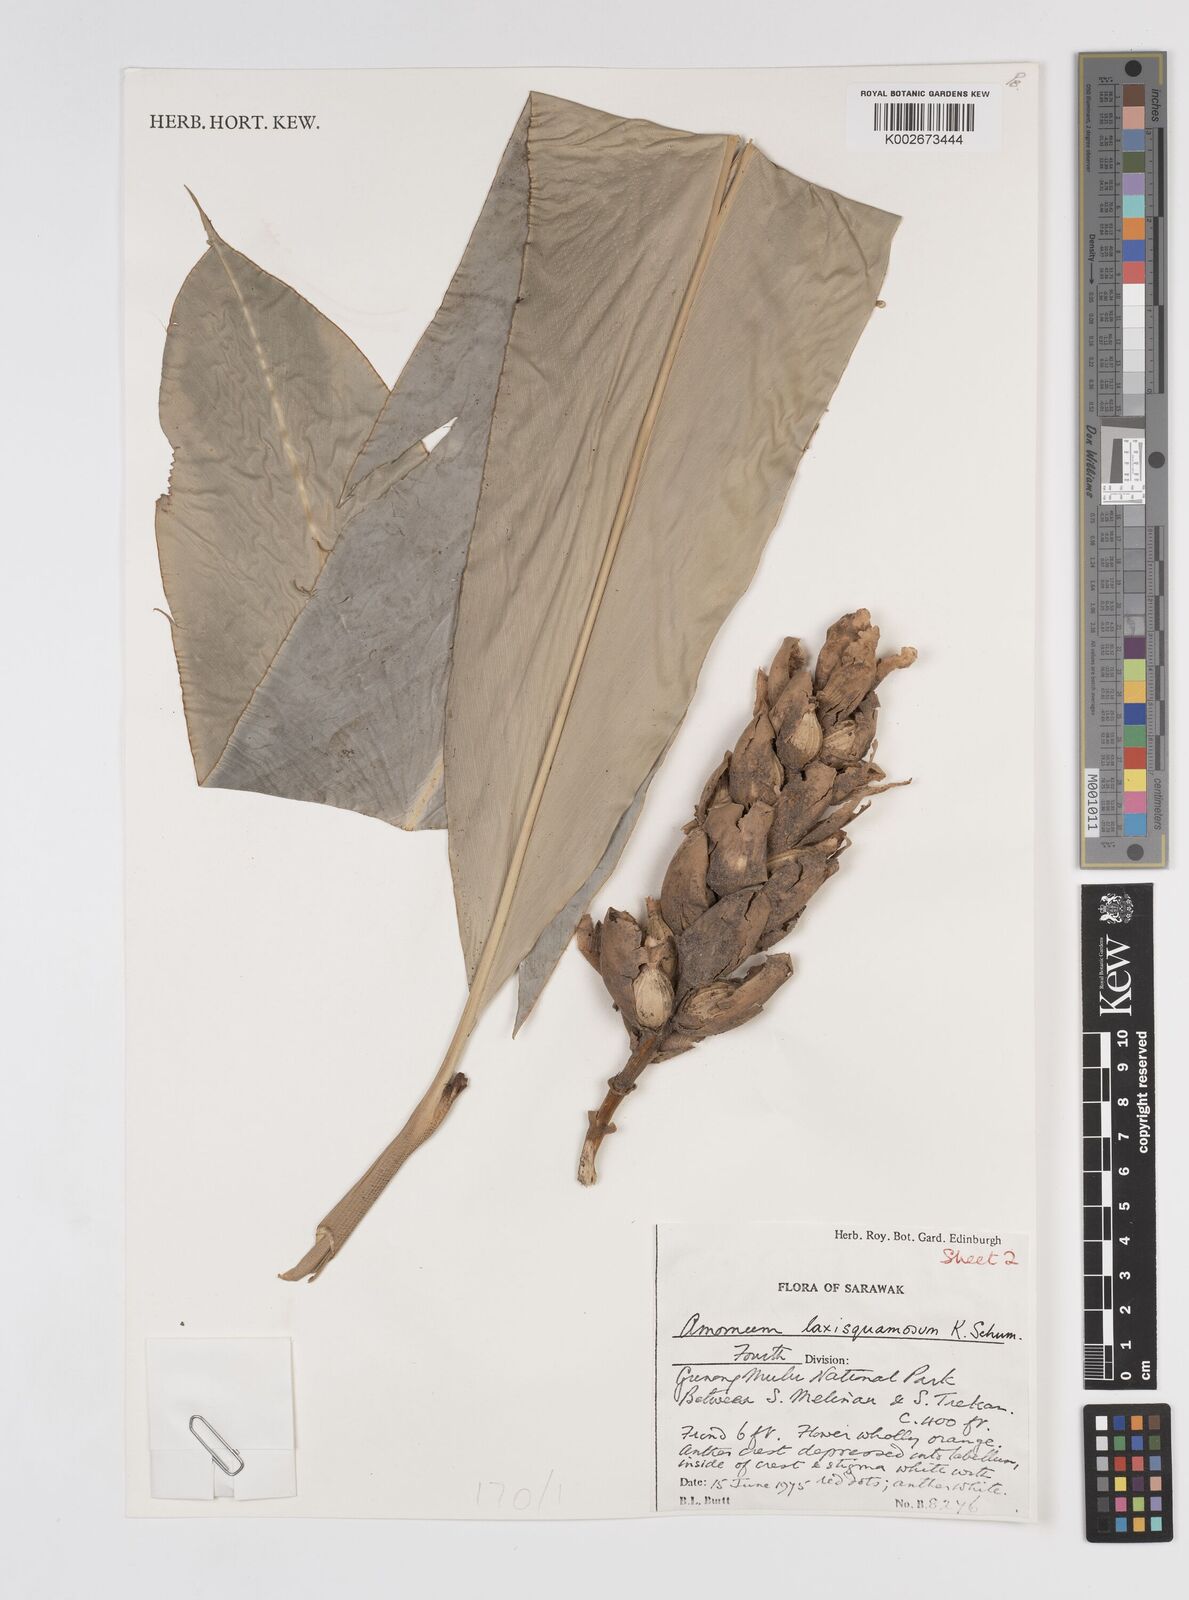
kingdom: Plantae
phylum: Tracheophyta
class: Liliopsida
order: Zingiberales
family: Zingiberaceae
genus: Sundamomum
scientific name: Sundamomum laxesquamosum
